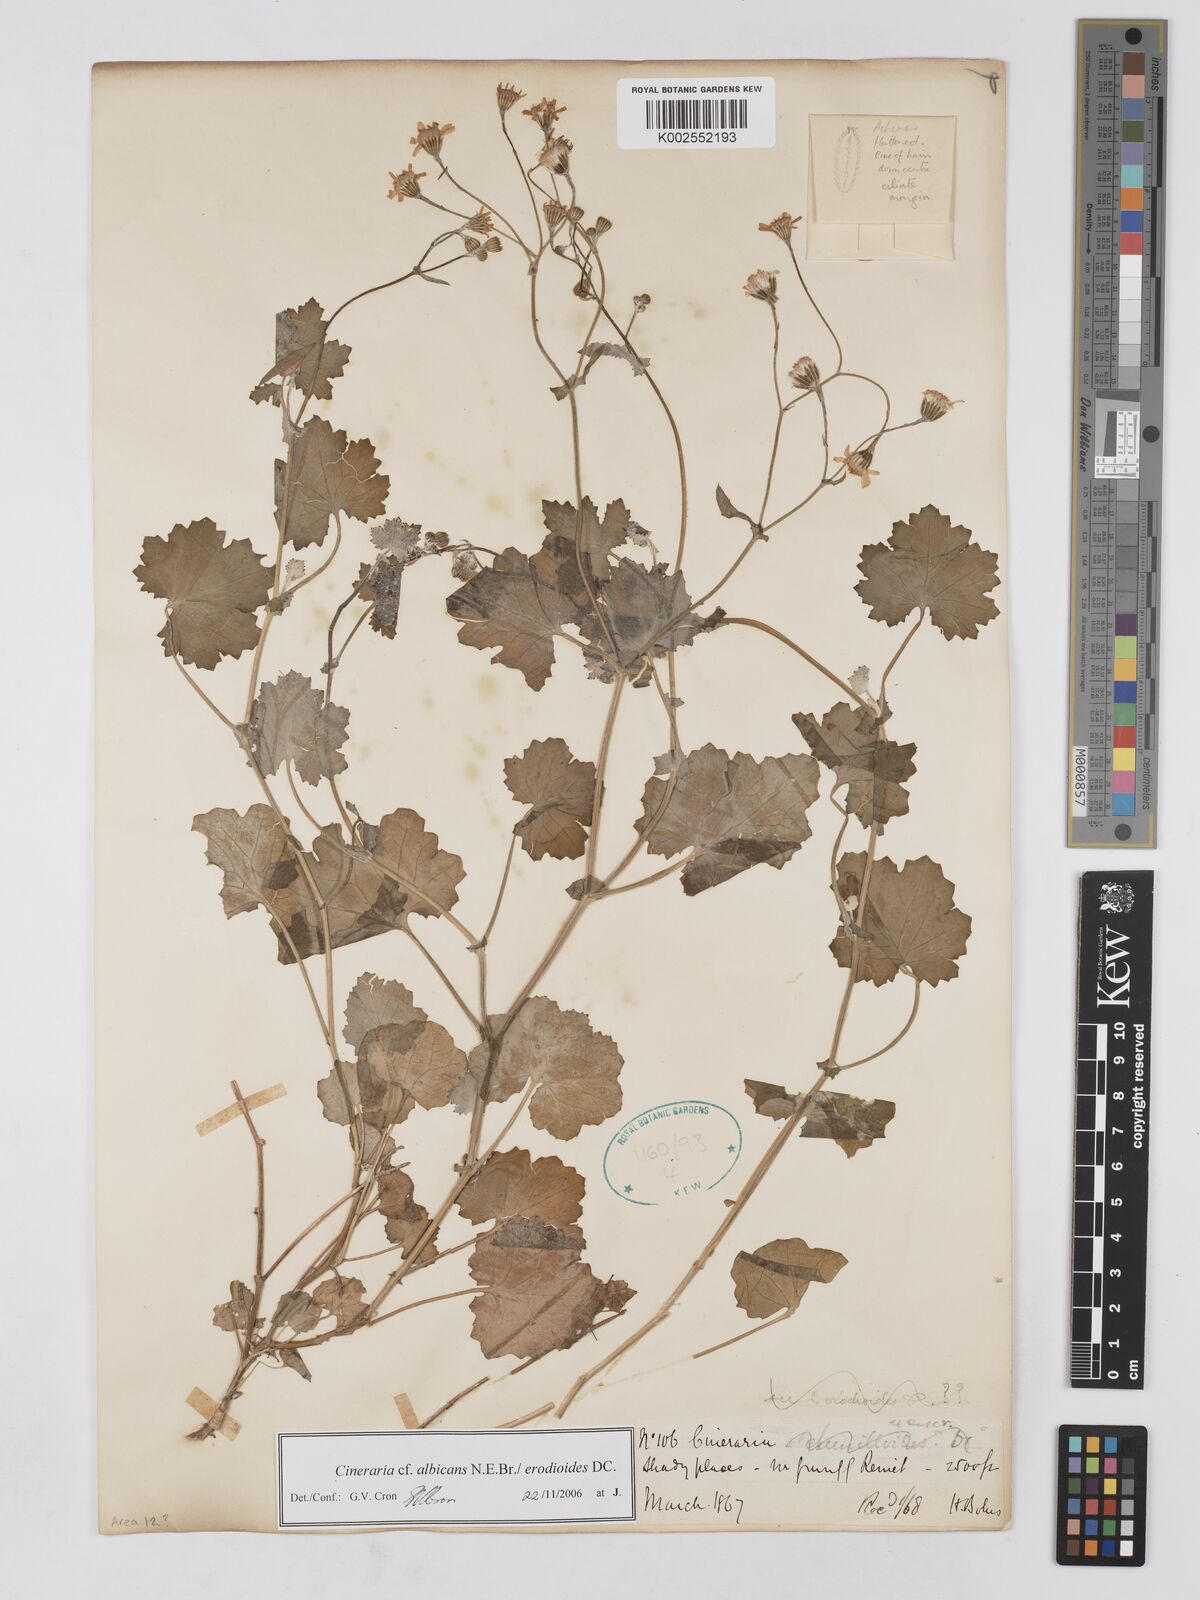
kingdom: Plantae
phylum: Tracheophyta
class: Magnoliopsida
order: Asterales
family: Asteraceae
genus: Cineraria
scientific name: Cineraria albicans
